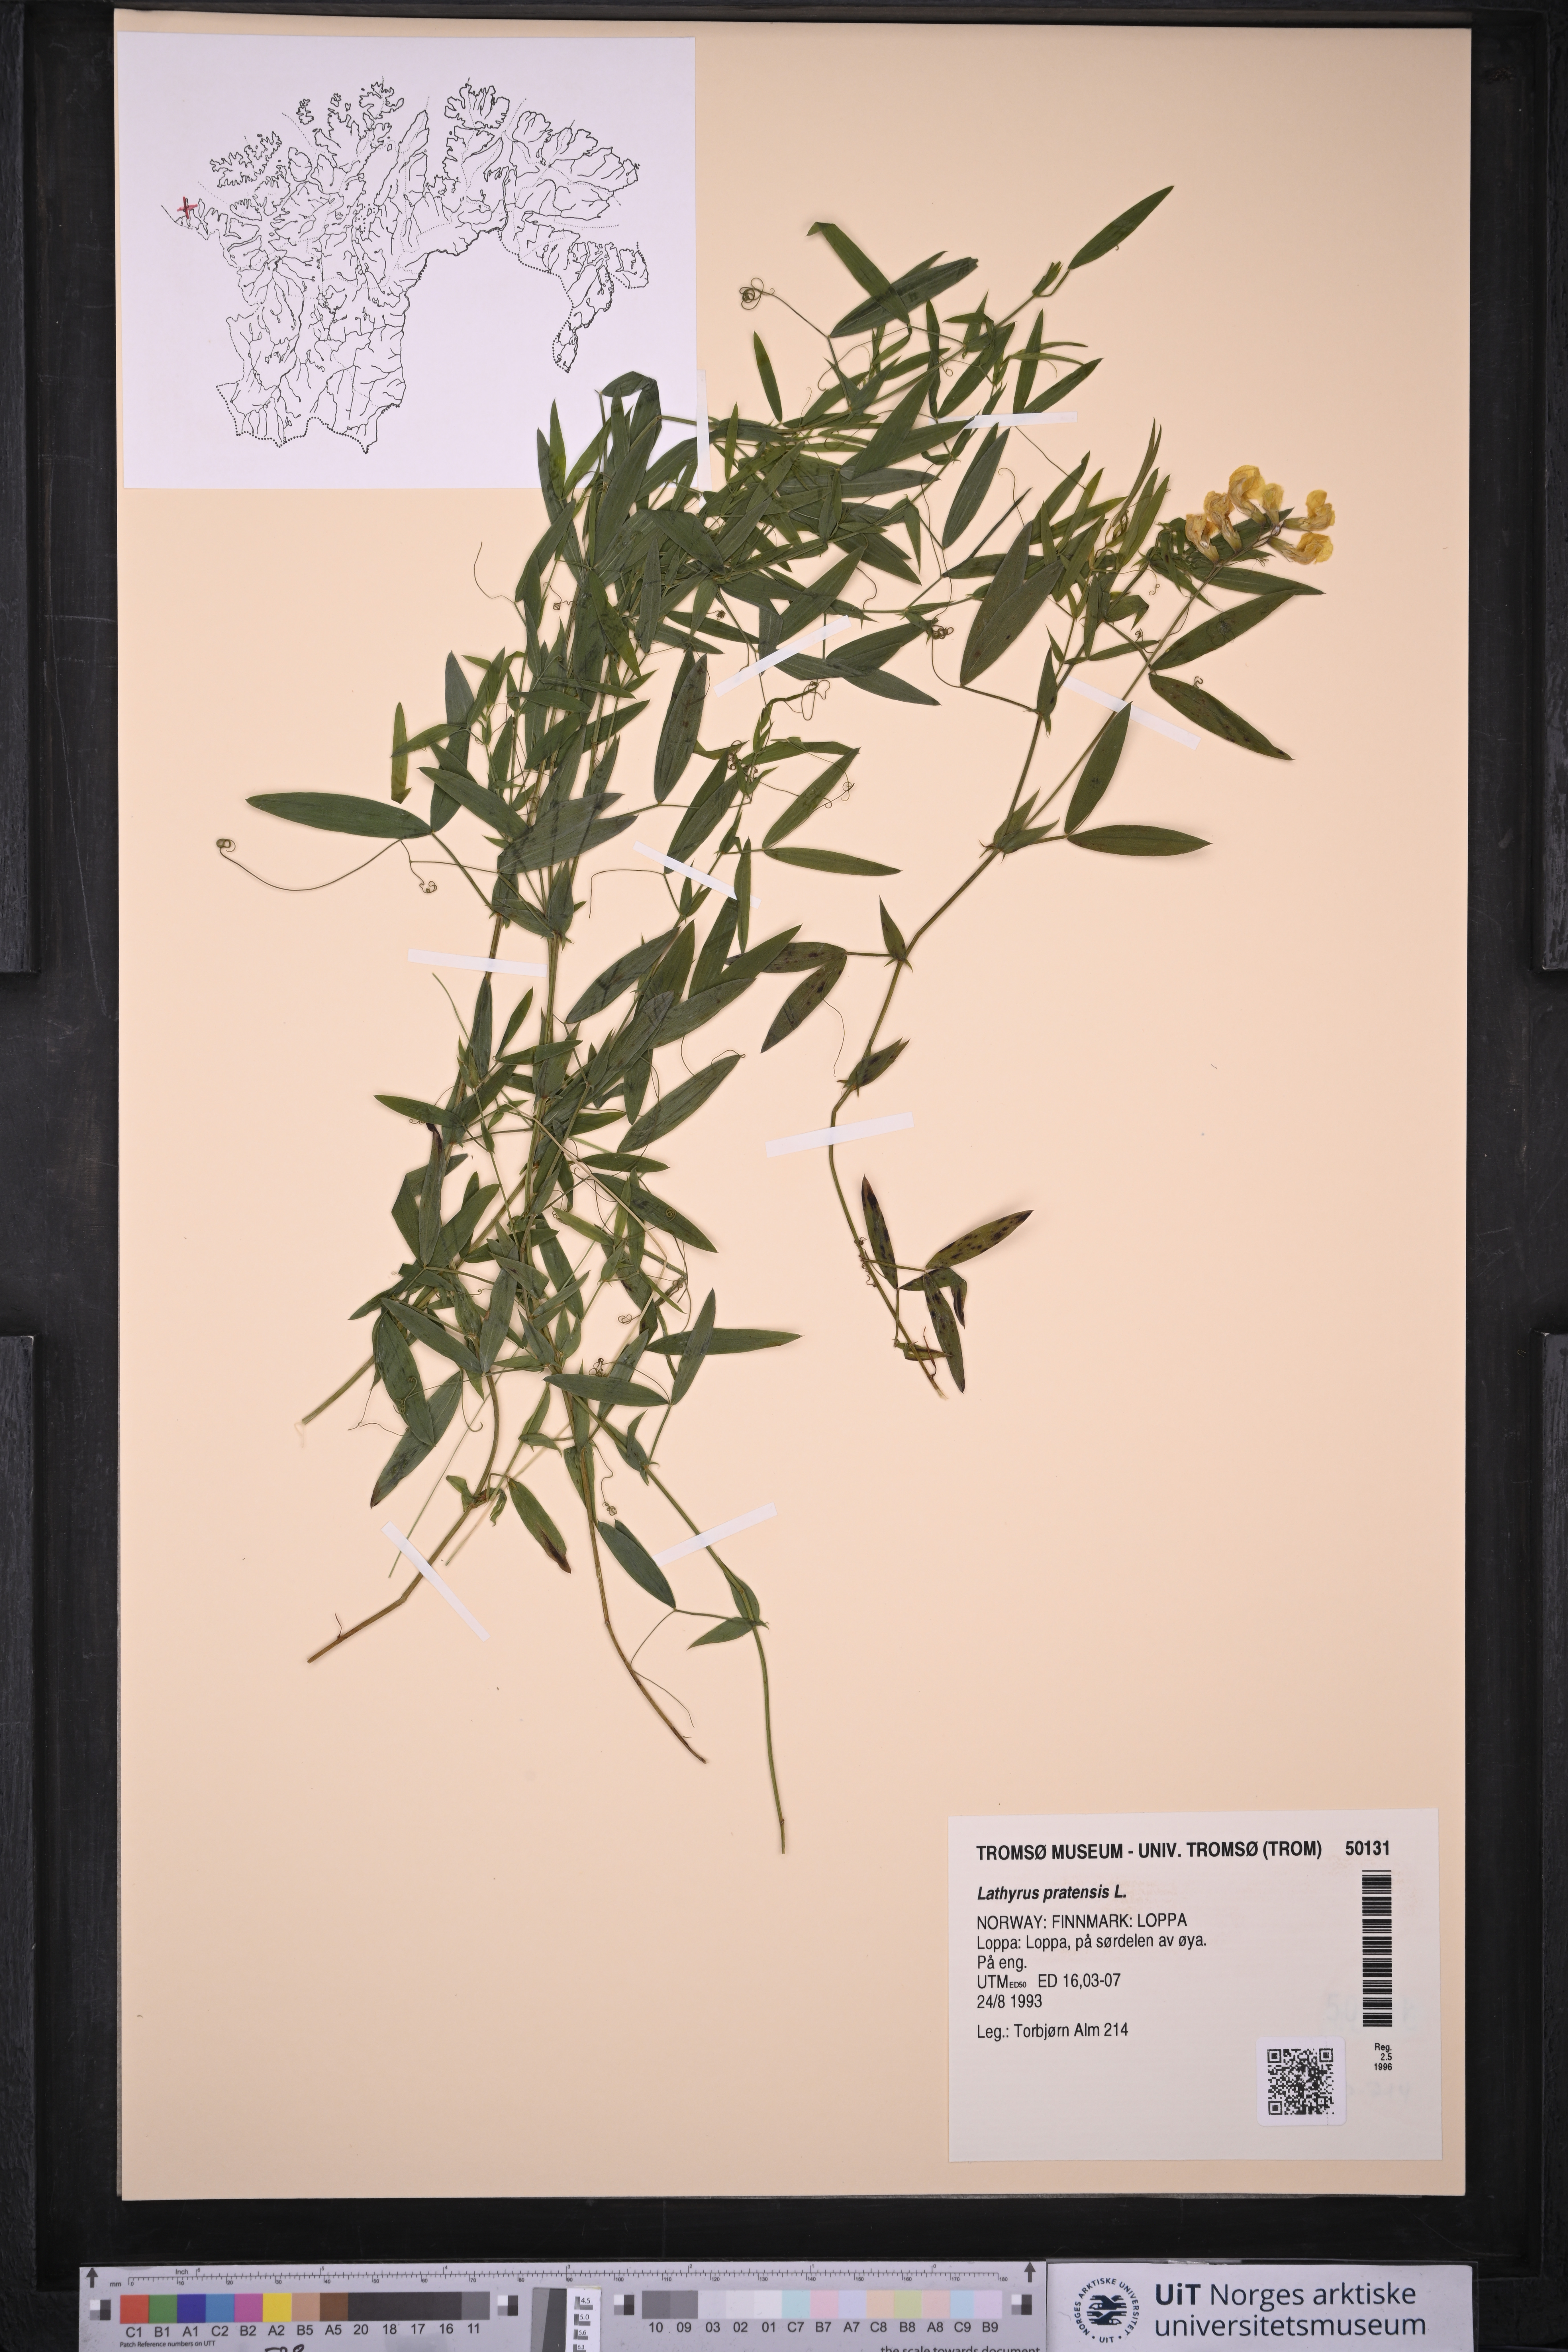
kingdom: Plantae
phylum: Tracheophyta
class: Magnoliopsida
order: Fabales
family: Fabaceae
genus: Lathyrus
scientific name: Lathyrus pratensis
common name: Meadow vetchling
